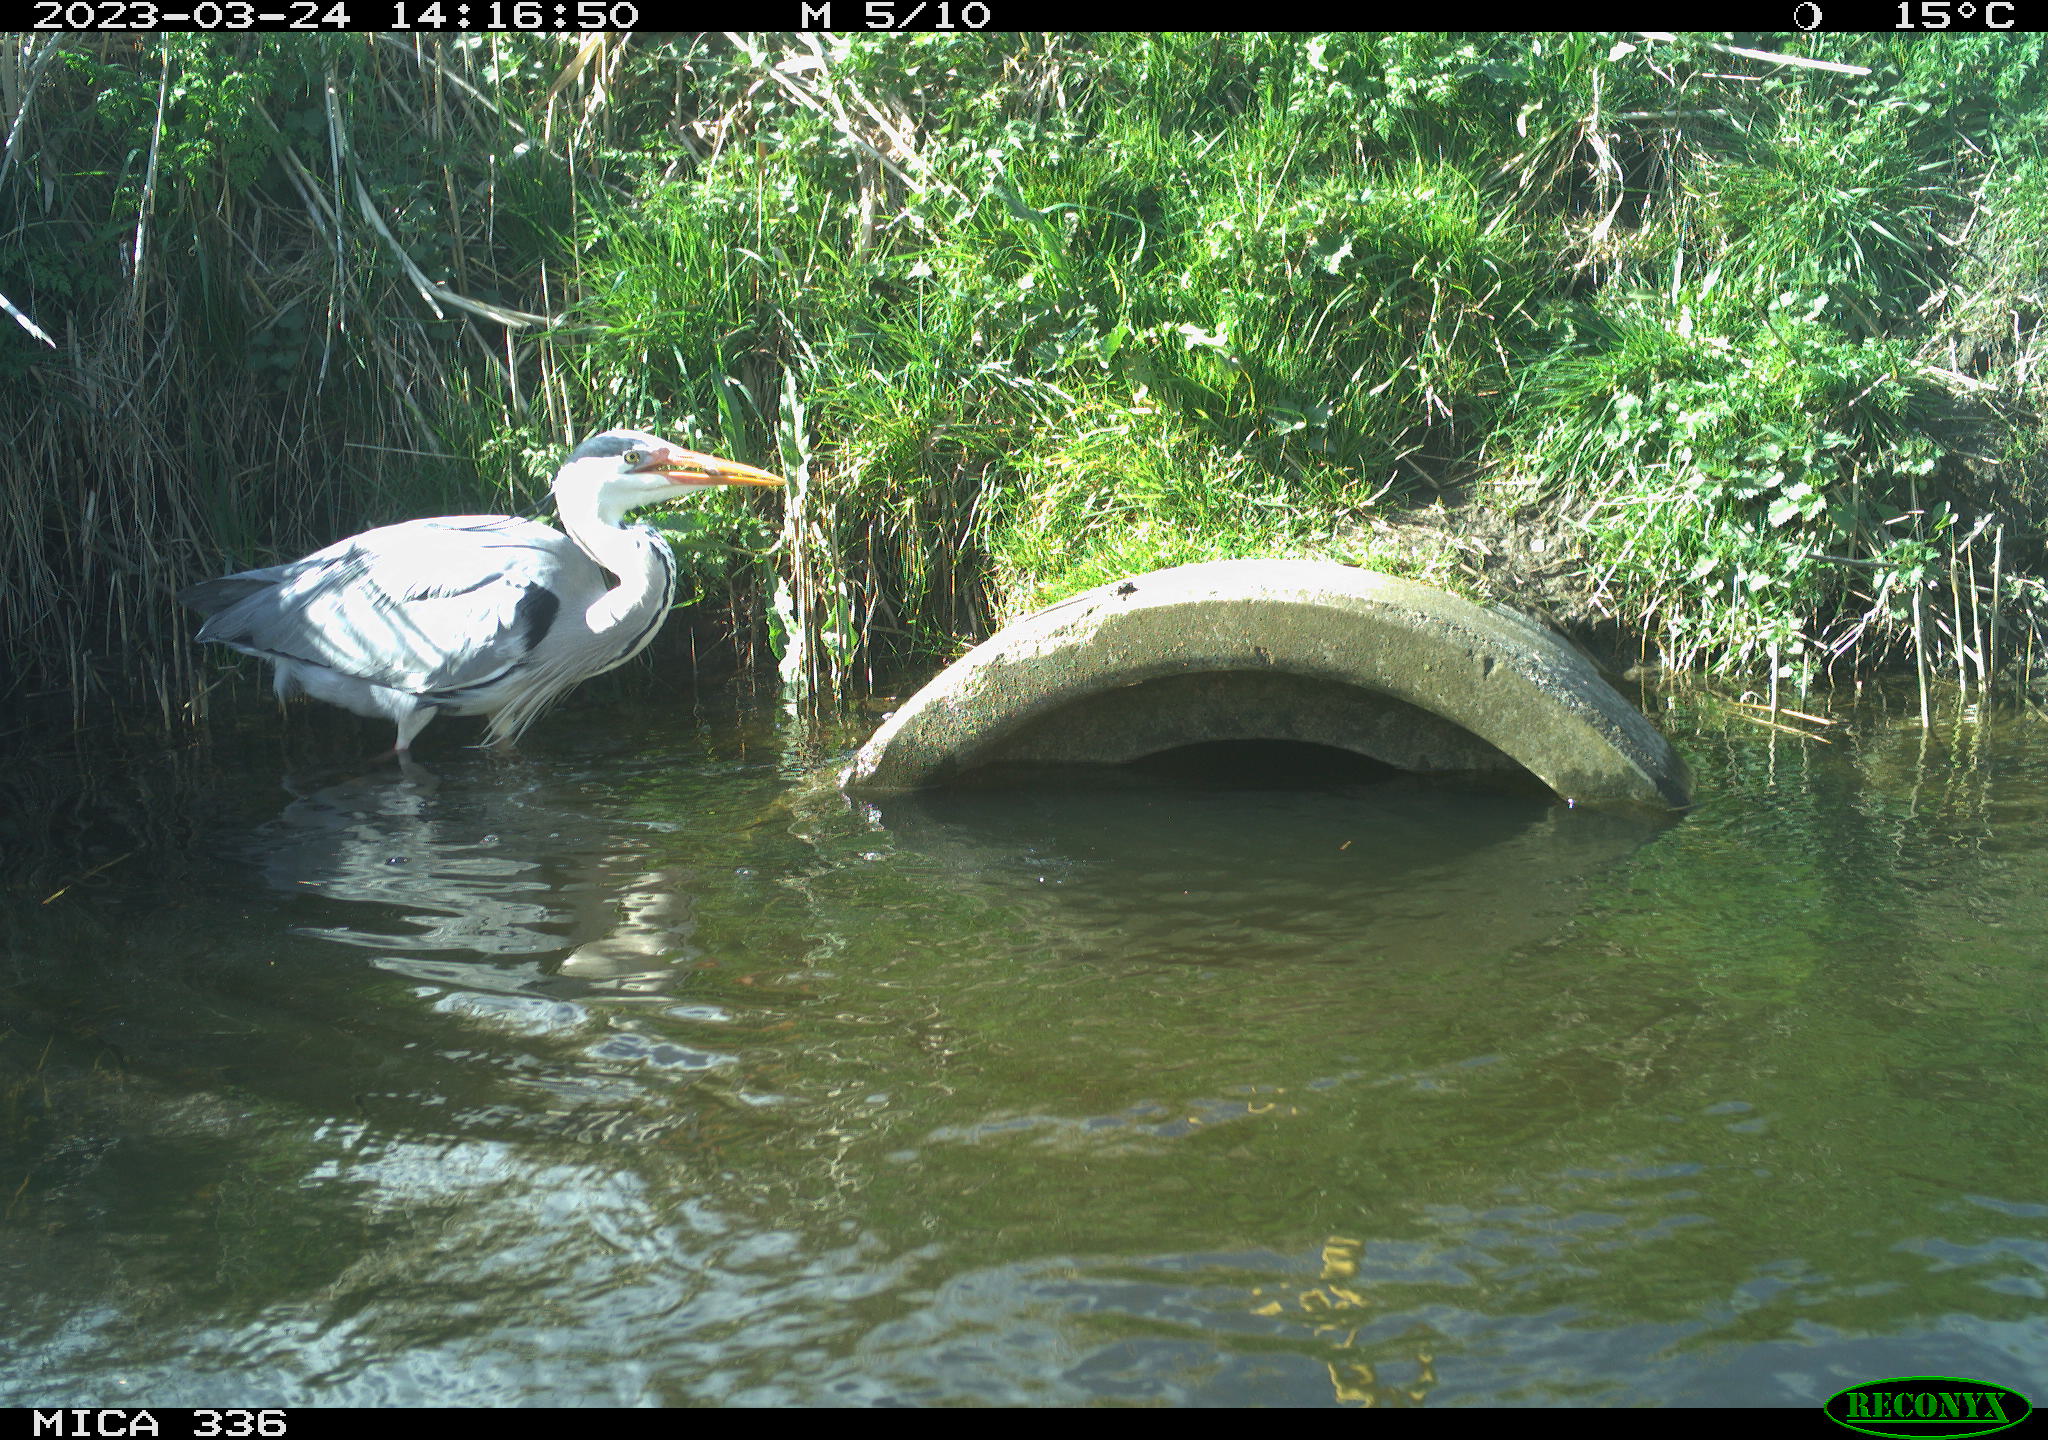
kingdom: Animalia
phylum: Chordata
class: Aves
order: Pelecaniformes
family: Ardeidae
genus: Ardea
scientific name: Ardea
